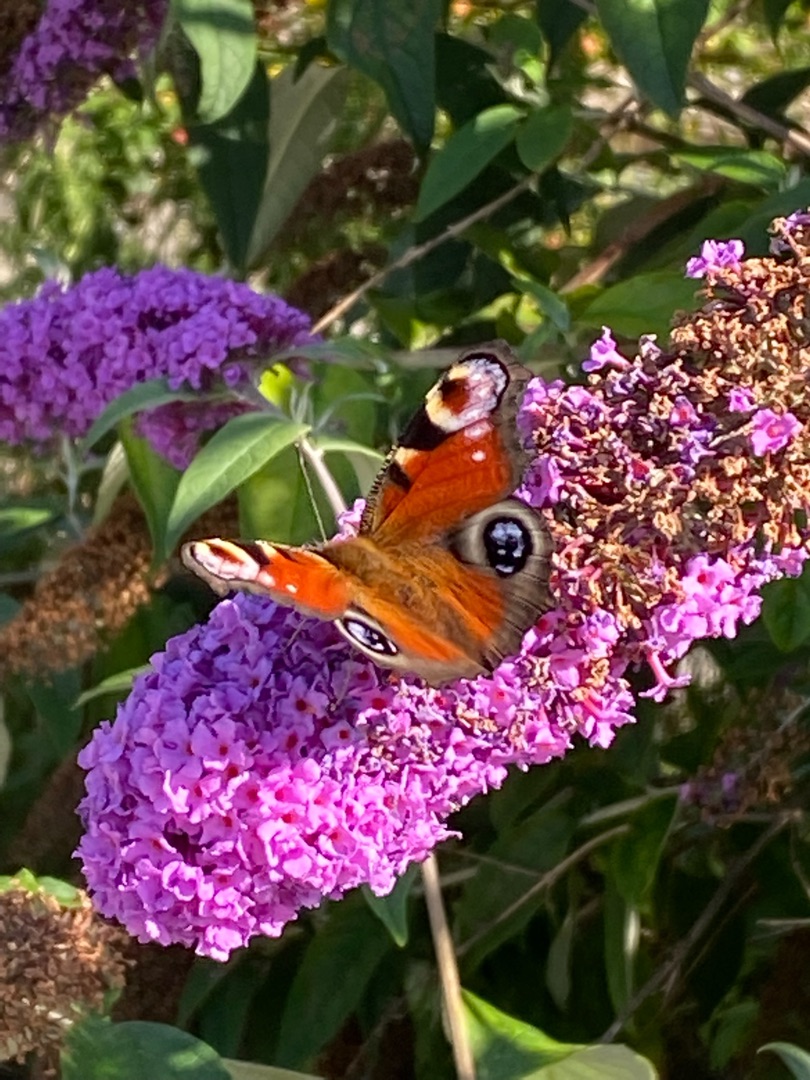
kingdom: Animalia
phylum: Arthropoda
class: Insecta
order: Lepidoptera
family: Nymphalidae
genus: Aglais
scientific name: Aglais io
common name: Dagpåfugleøje
